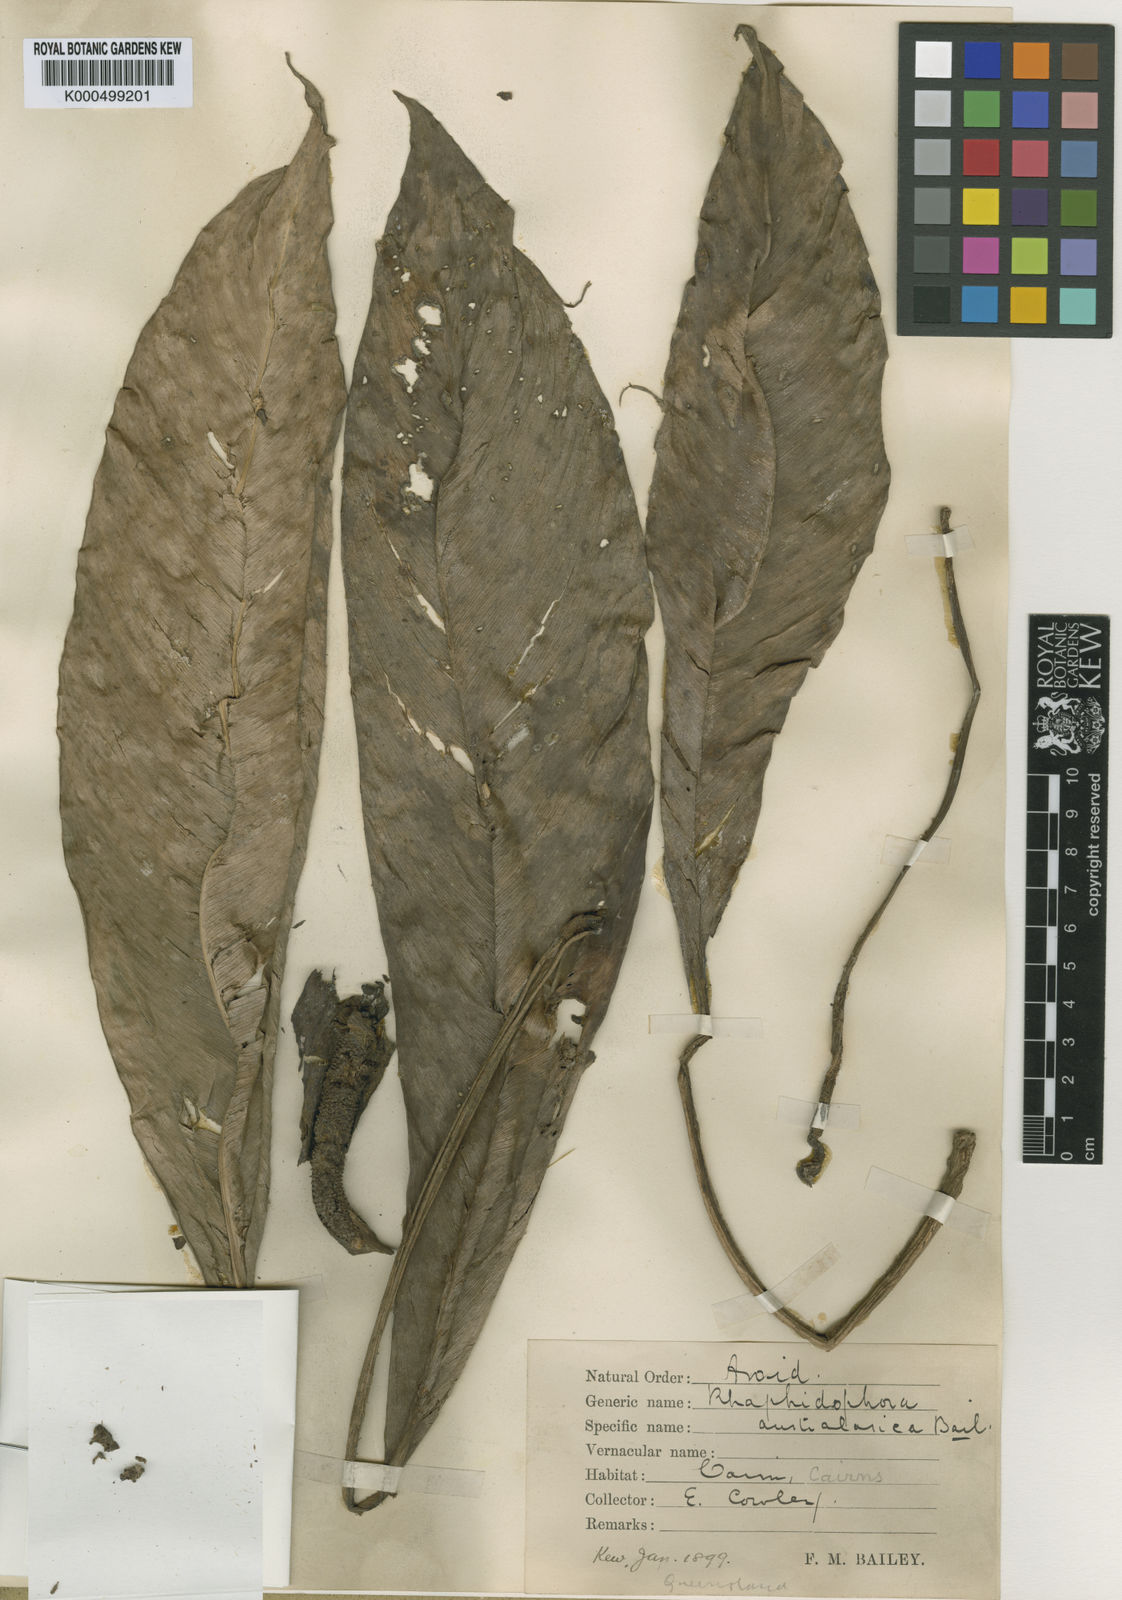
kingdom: Plantae
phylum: Tracheophyta
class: Liliopsida
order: Alismatales
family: Araceae
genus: Rhaphidophora
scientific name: Rhaphidophora australasica
